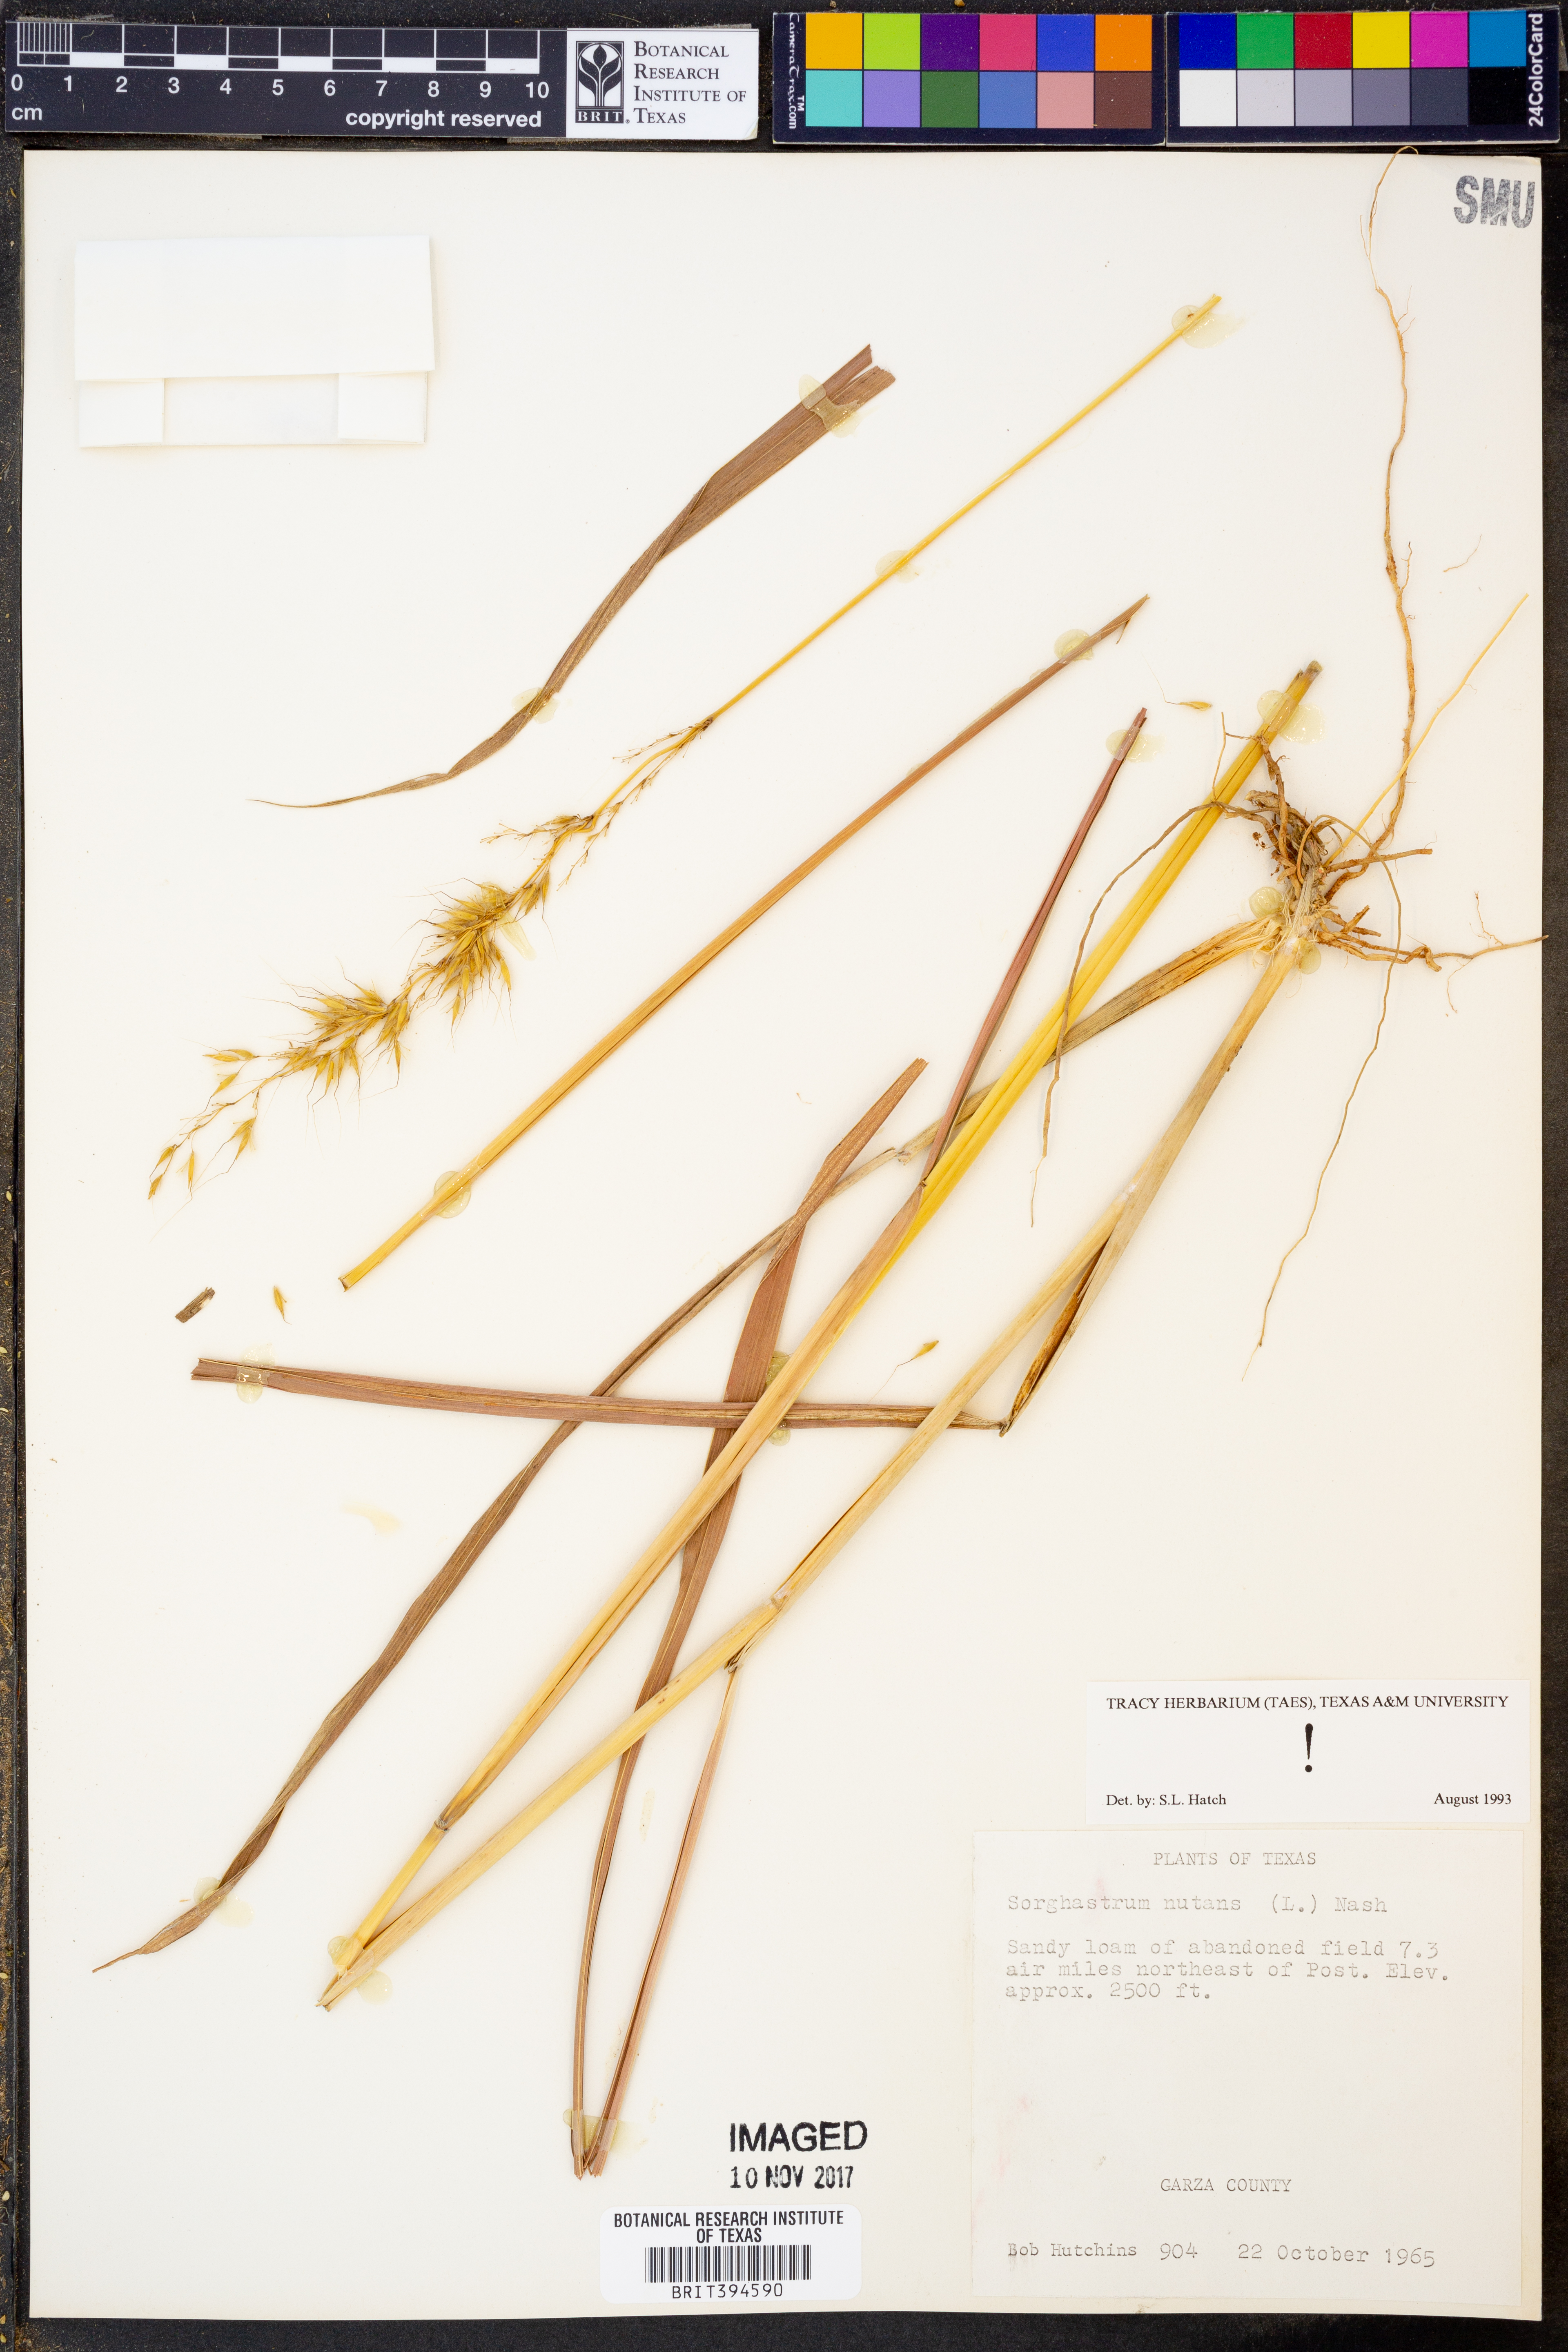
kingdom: Plantae
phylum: Tracheophyta
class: Liliopsida
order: Poales
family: Poaceae
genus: Sorghastrum
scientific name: Sorghastrum nutans
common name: Indian grass
